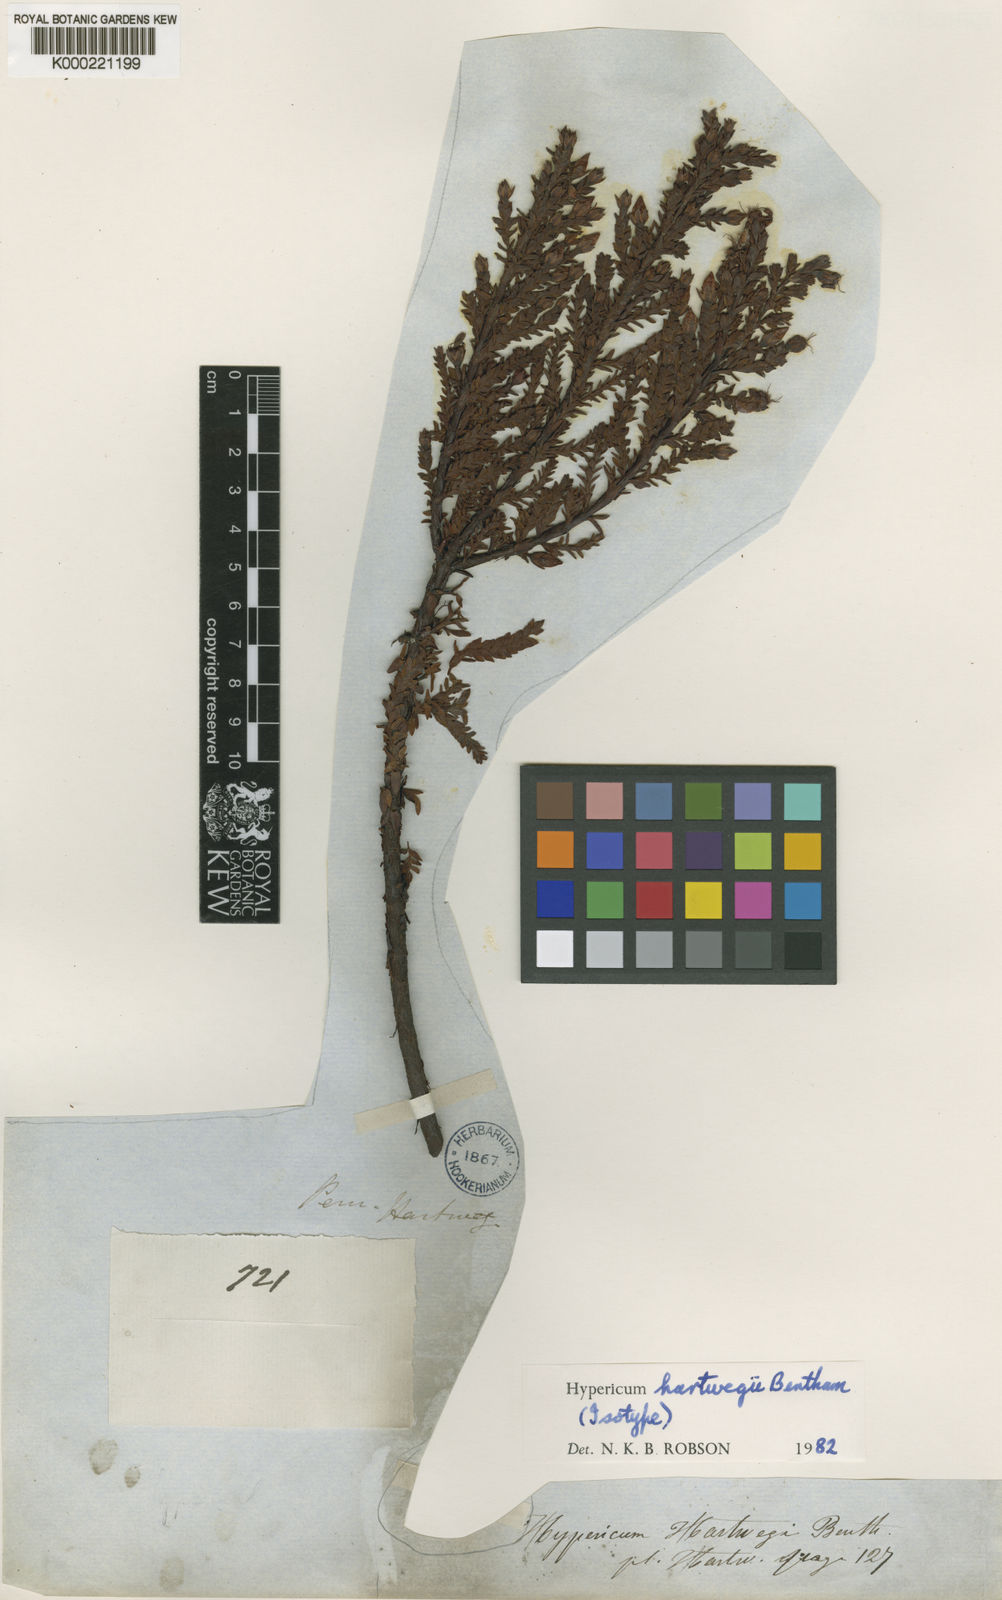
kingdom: Plantae
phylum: Tracheophyta
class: Magnoliopsida
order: Malpighiales
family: Hypericaceae
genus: Hypericum
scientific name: Hypericum hartwegii
